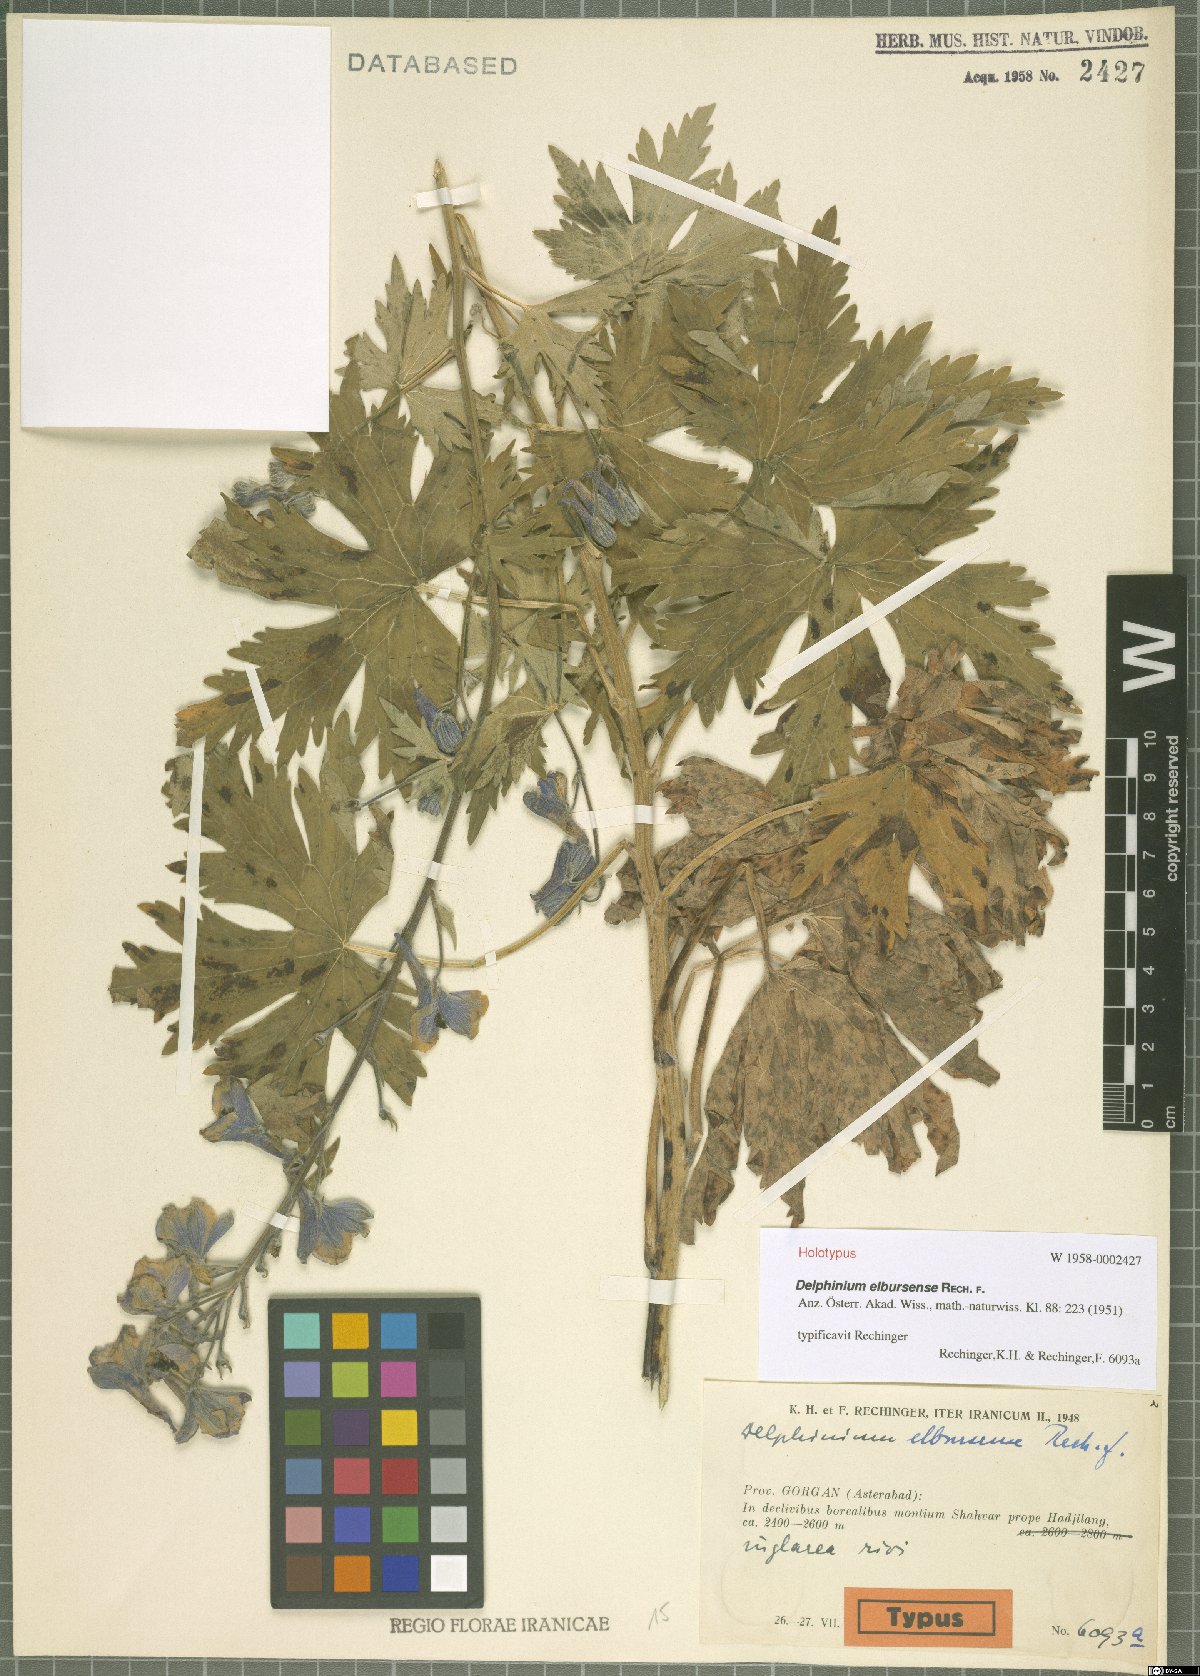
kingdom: Plantae
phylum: Tracheophyta
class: Magnoliopsida
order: Ranunculales
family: Ranunculaceae
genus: Delphinium
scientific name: Delphinium elbursense
